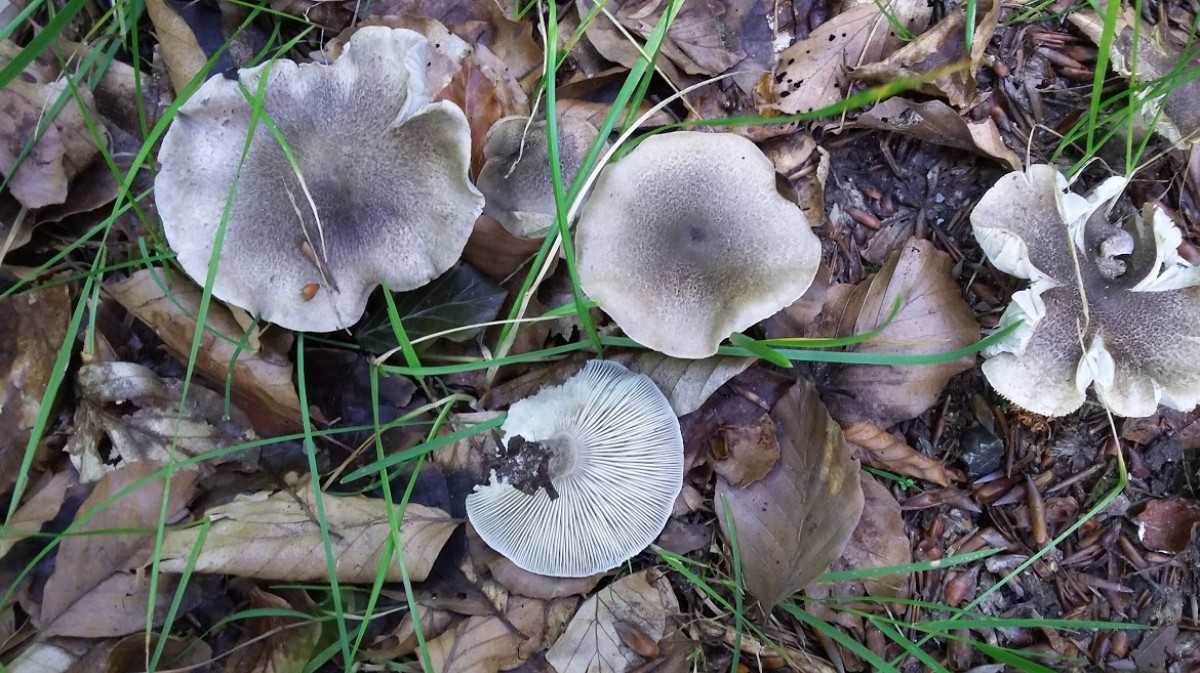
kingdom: Fungi
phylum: Basidiomycota
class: Agaricomycetes
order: Agaricales
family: Tricholomataceae
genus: Tricholoma
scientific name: Tricholoma scalpturatum
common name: gulplettet ridderhat
